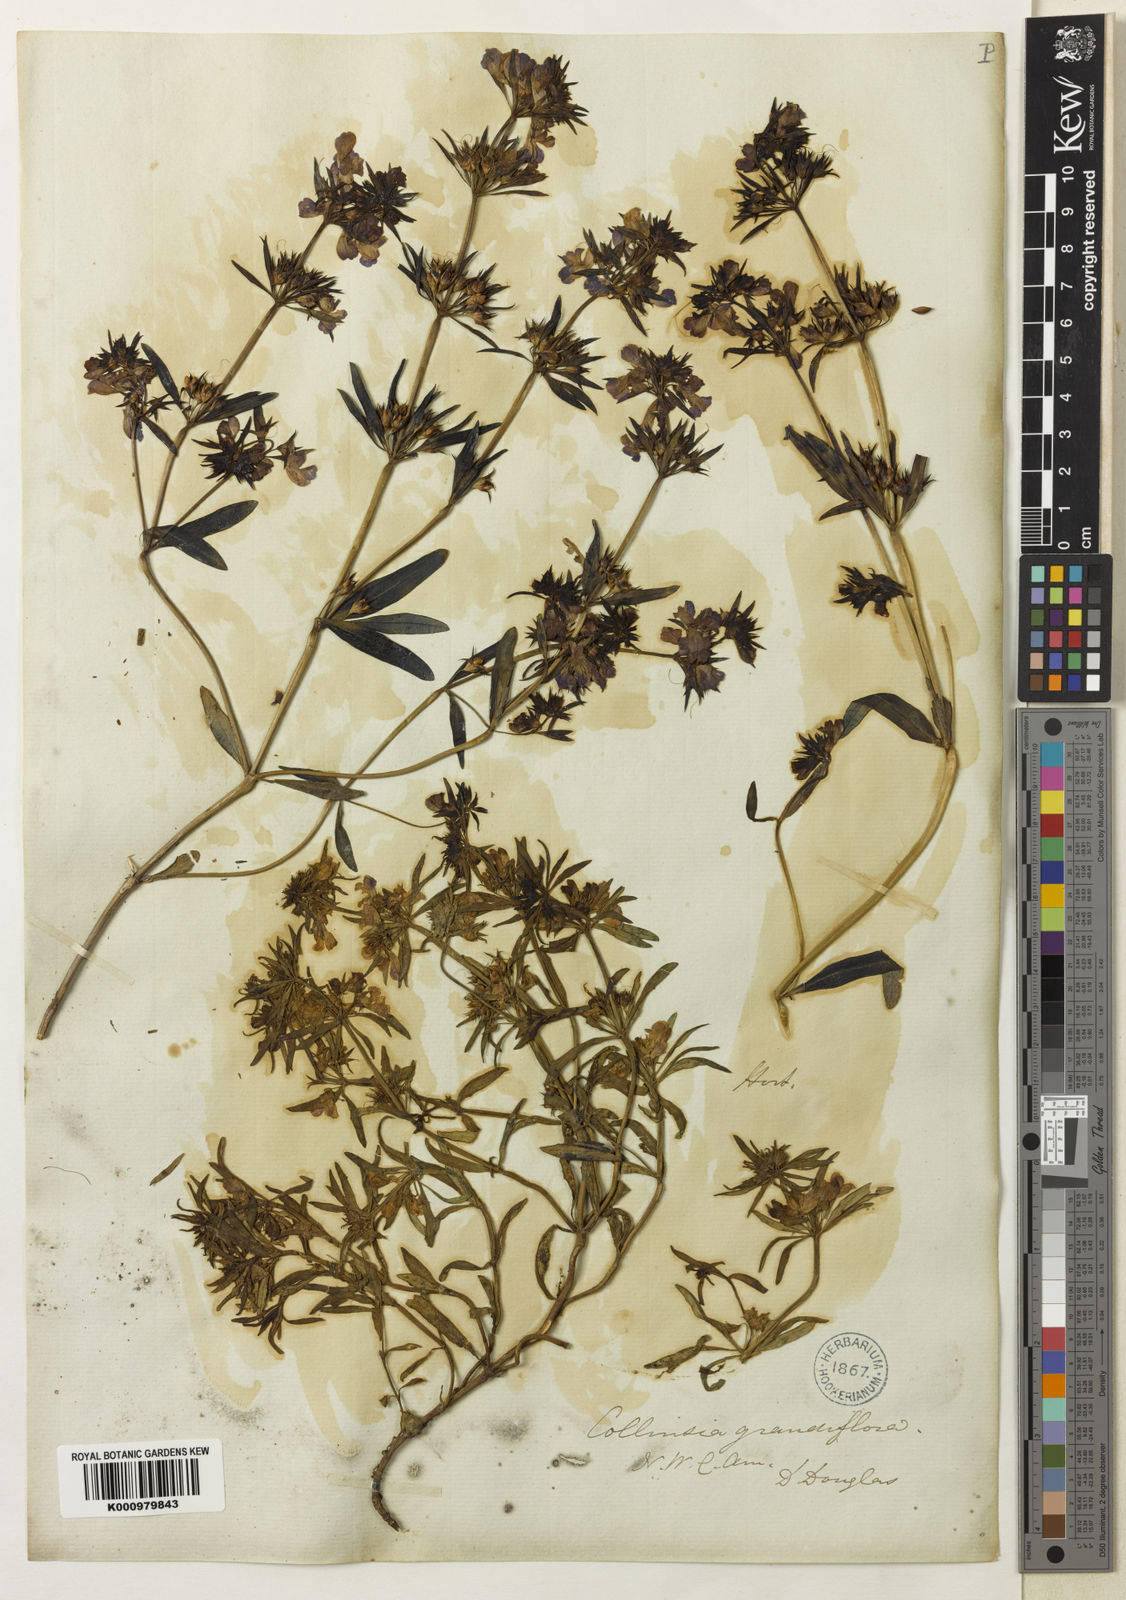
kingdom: Plantae
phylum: Tracheophyta
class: Magnoliopsida
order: Lamiales
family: Plantaginaceae
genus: Collinsia
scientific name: Collinsia grandiflora
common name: Large-flower blue-eyed-mary
